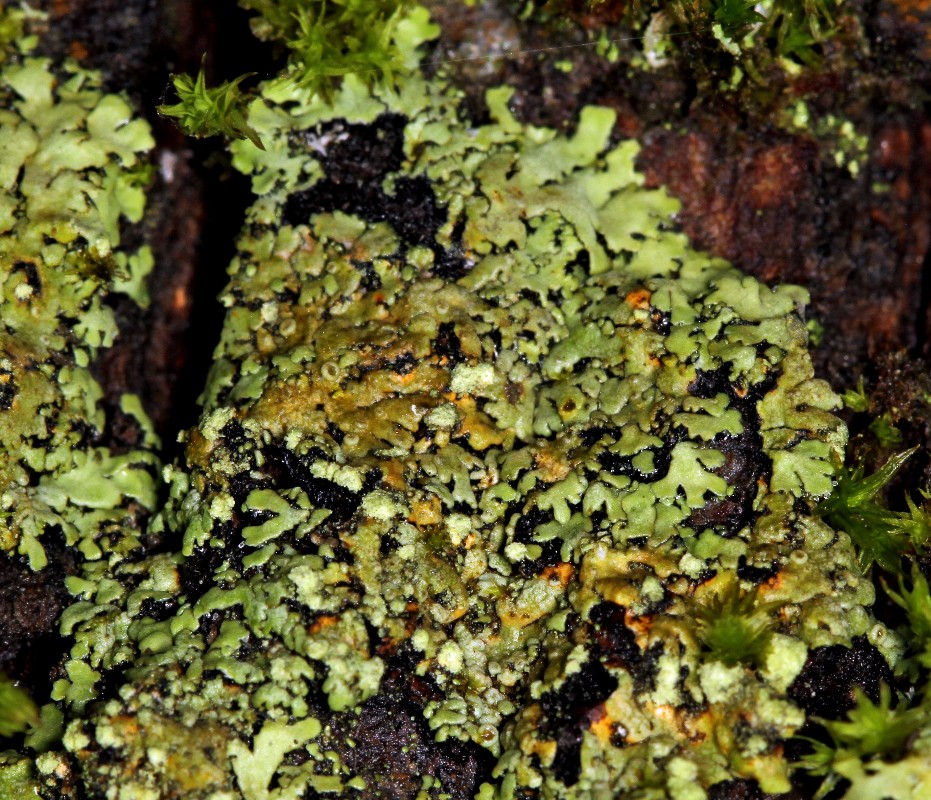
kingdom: Fungi
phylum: Ascomycota
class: Lecanoromycetes
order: Caliciales
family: Physciaceae
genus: Phaeophyscia
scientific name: Phaeophyscia endophoenicea
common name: skygge-rosetlav
